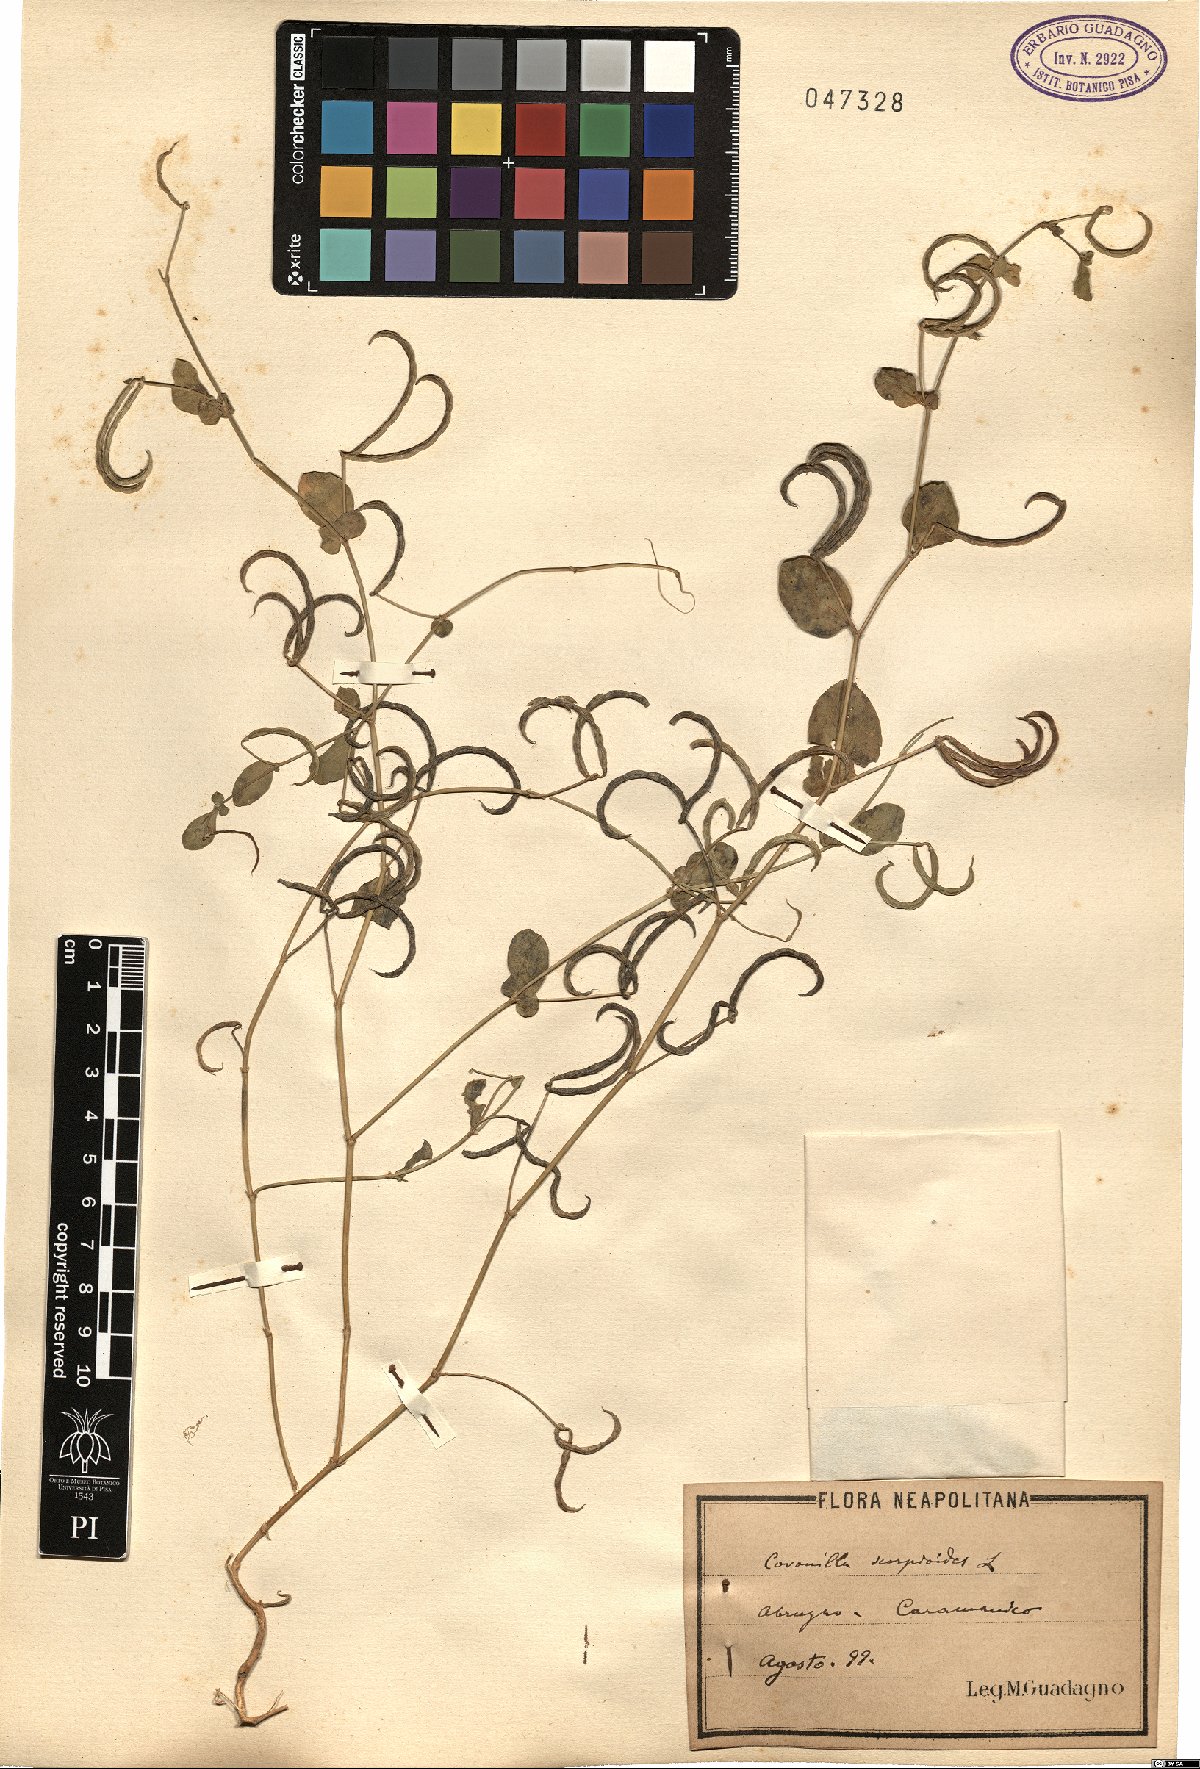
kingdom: Plantae
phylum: Tracheophyta
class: Magnoliopsida
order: Fabales
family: Fabaceae
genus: Coronilla
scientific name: Coronilla scorpioides
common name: Annual scorpion-vetch
